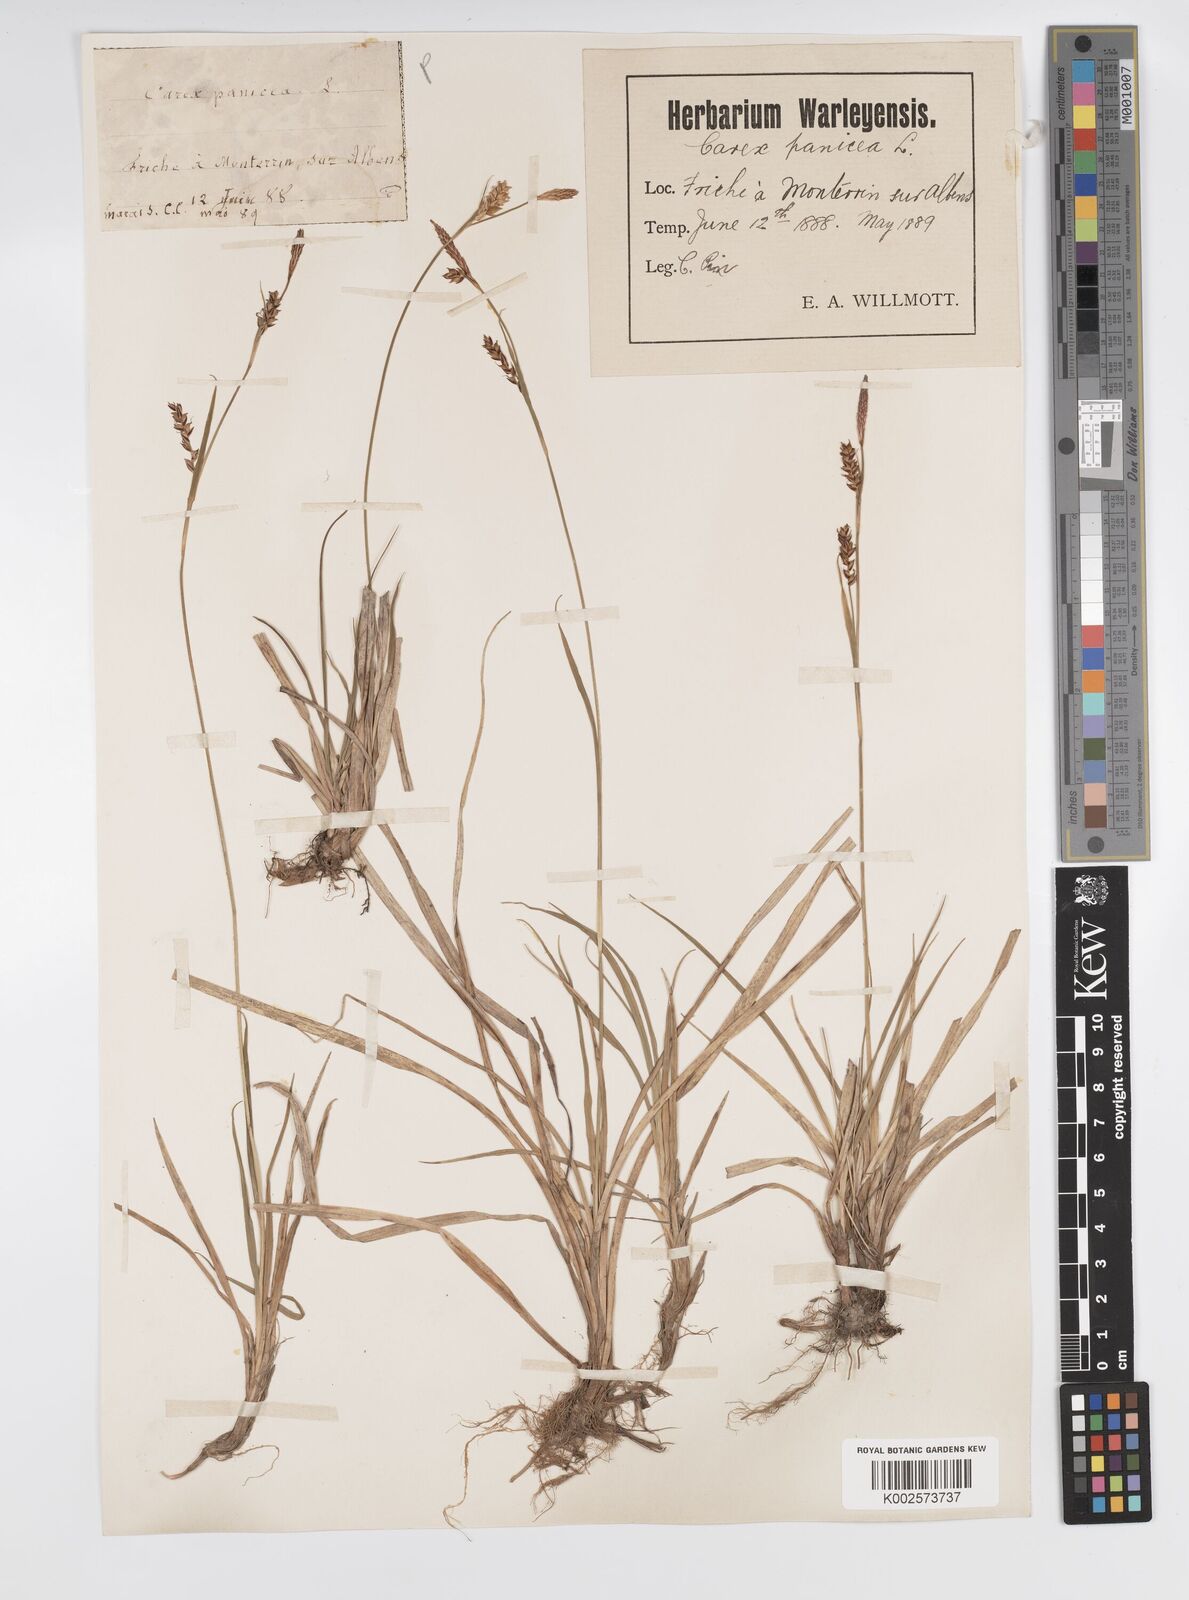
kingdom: Plantae
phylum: Tracheophyta
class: Liliopsida
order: Poales
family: Cyperaceae
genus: Carex
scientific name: Carex panicea
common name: Carnation sedge
